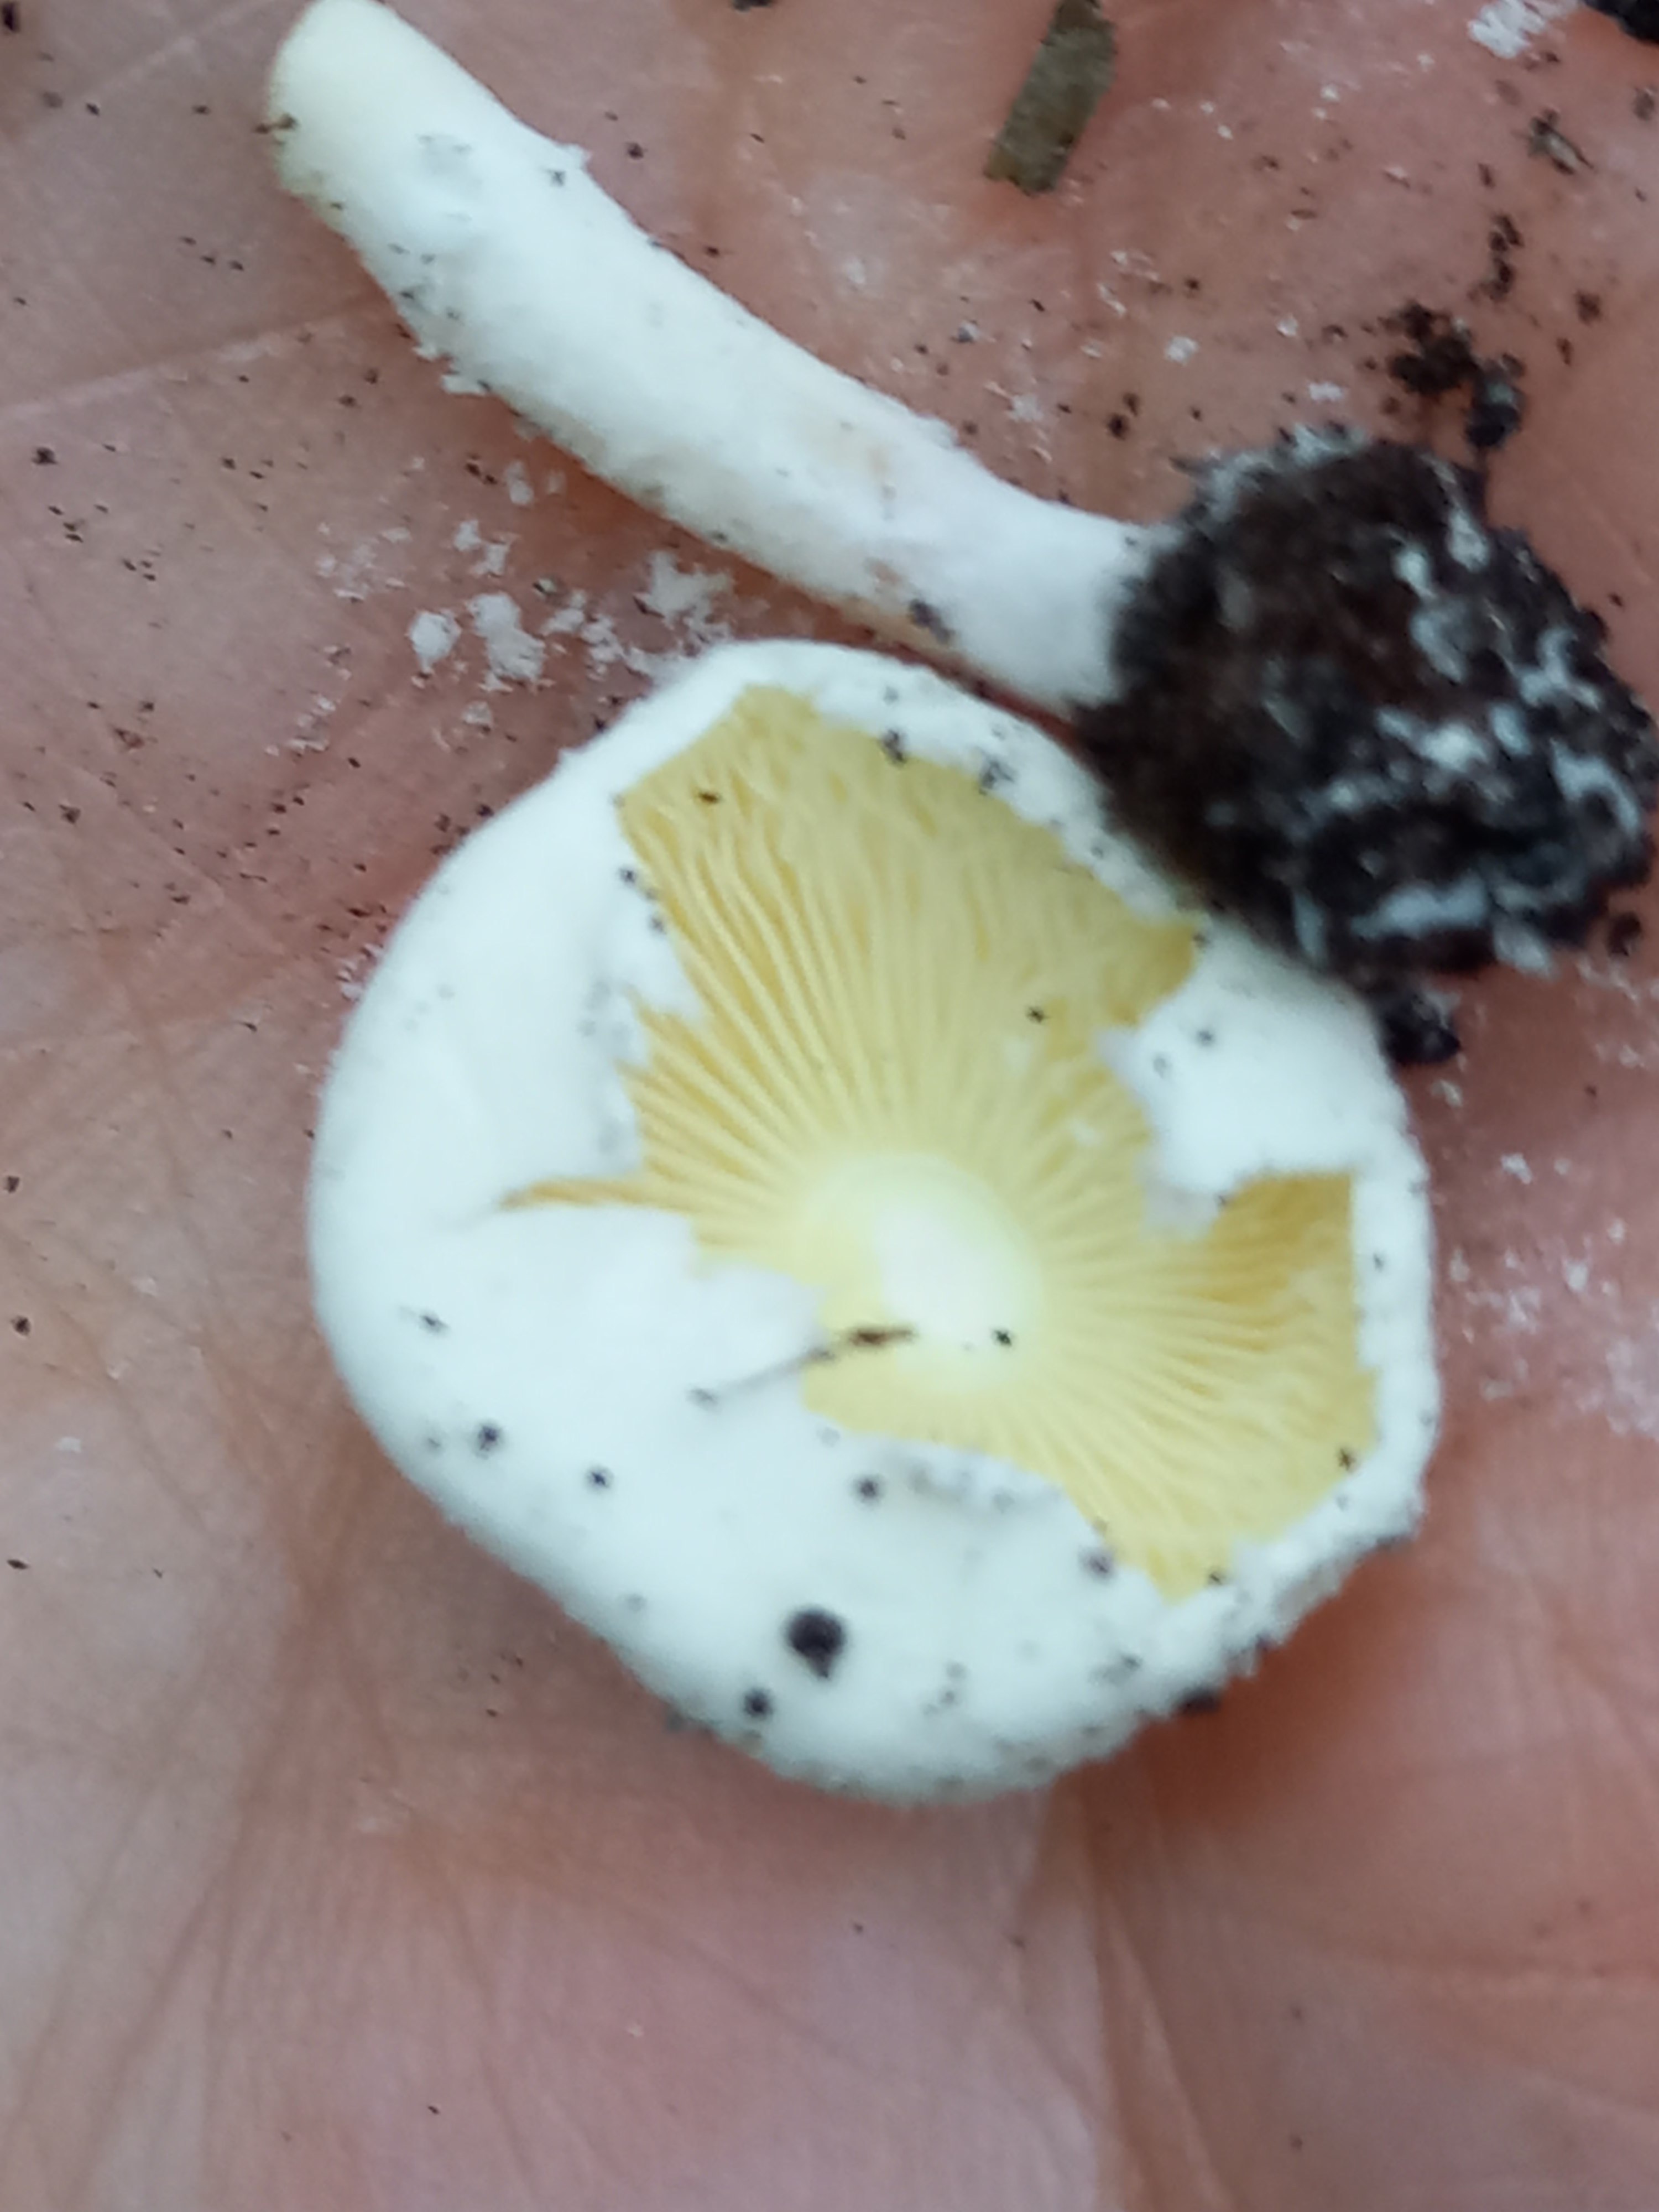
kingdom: Fungi
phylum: Basidiomycota
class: Agaricomycetes
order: Agaricales
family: Agaricaceae
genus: Cystolepiota
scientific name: Cystolepiota seminuda
